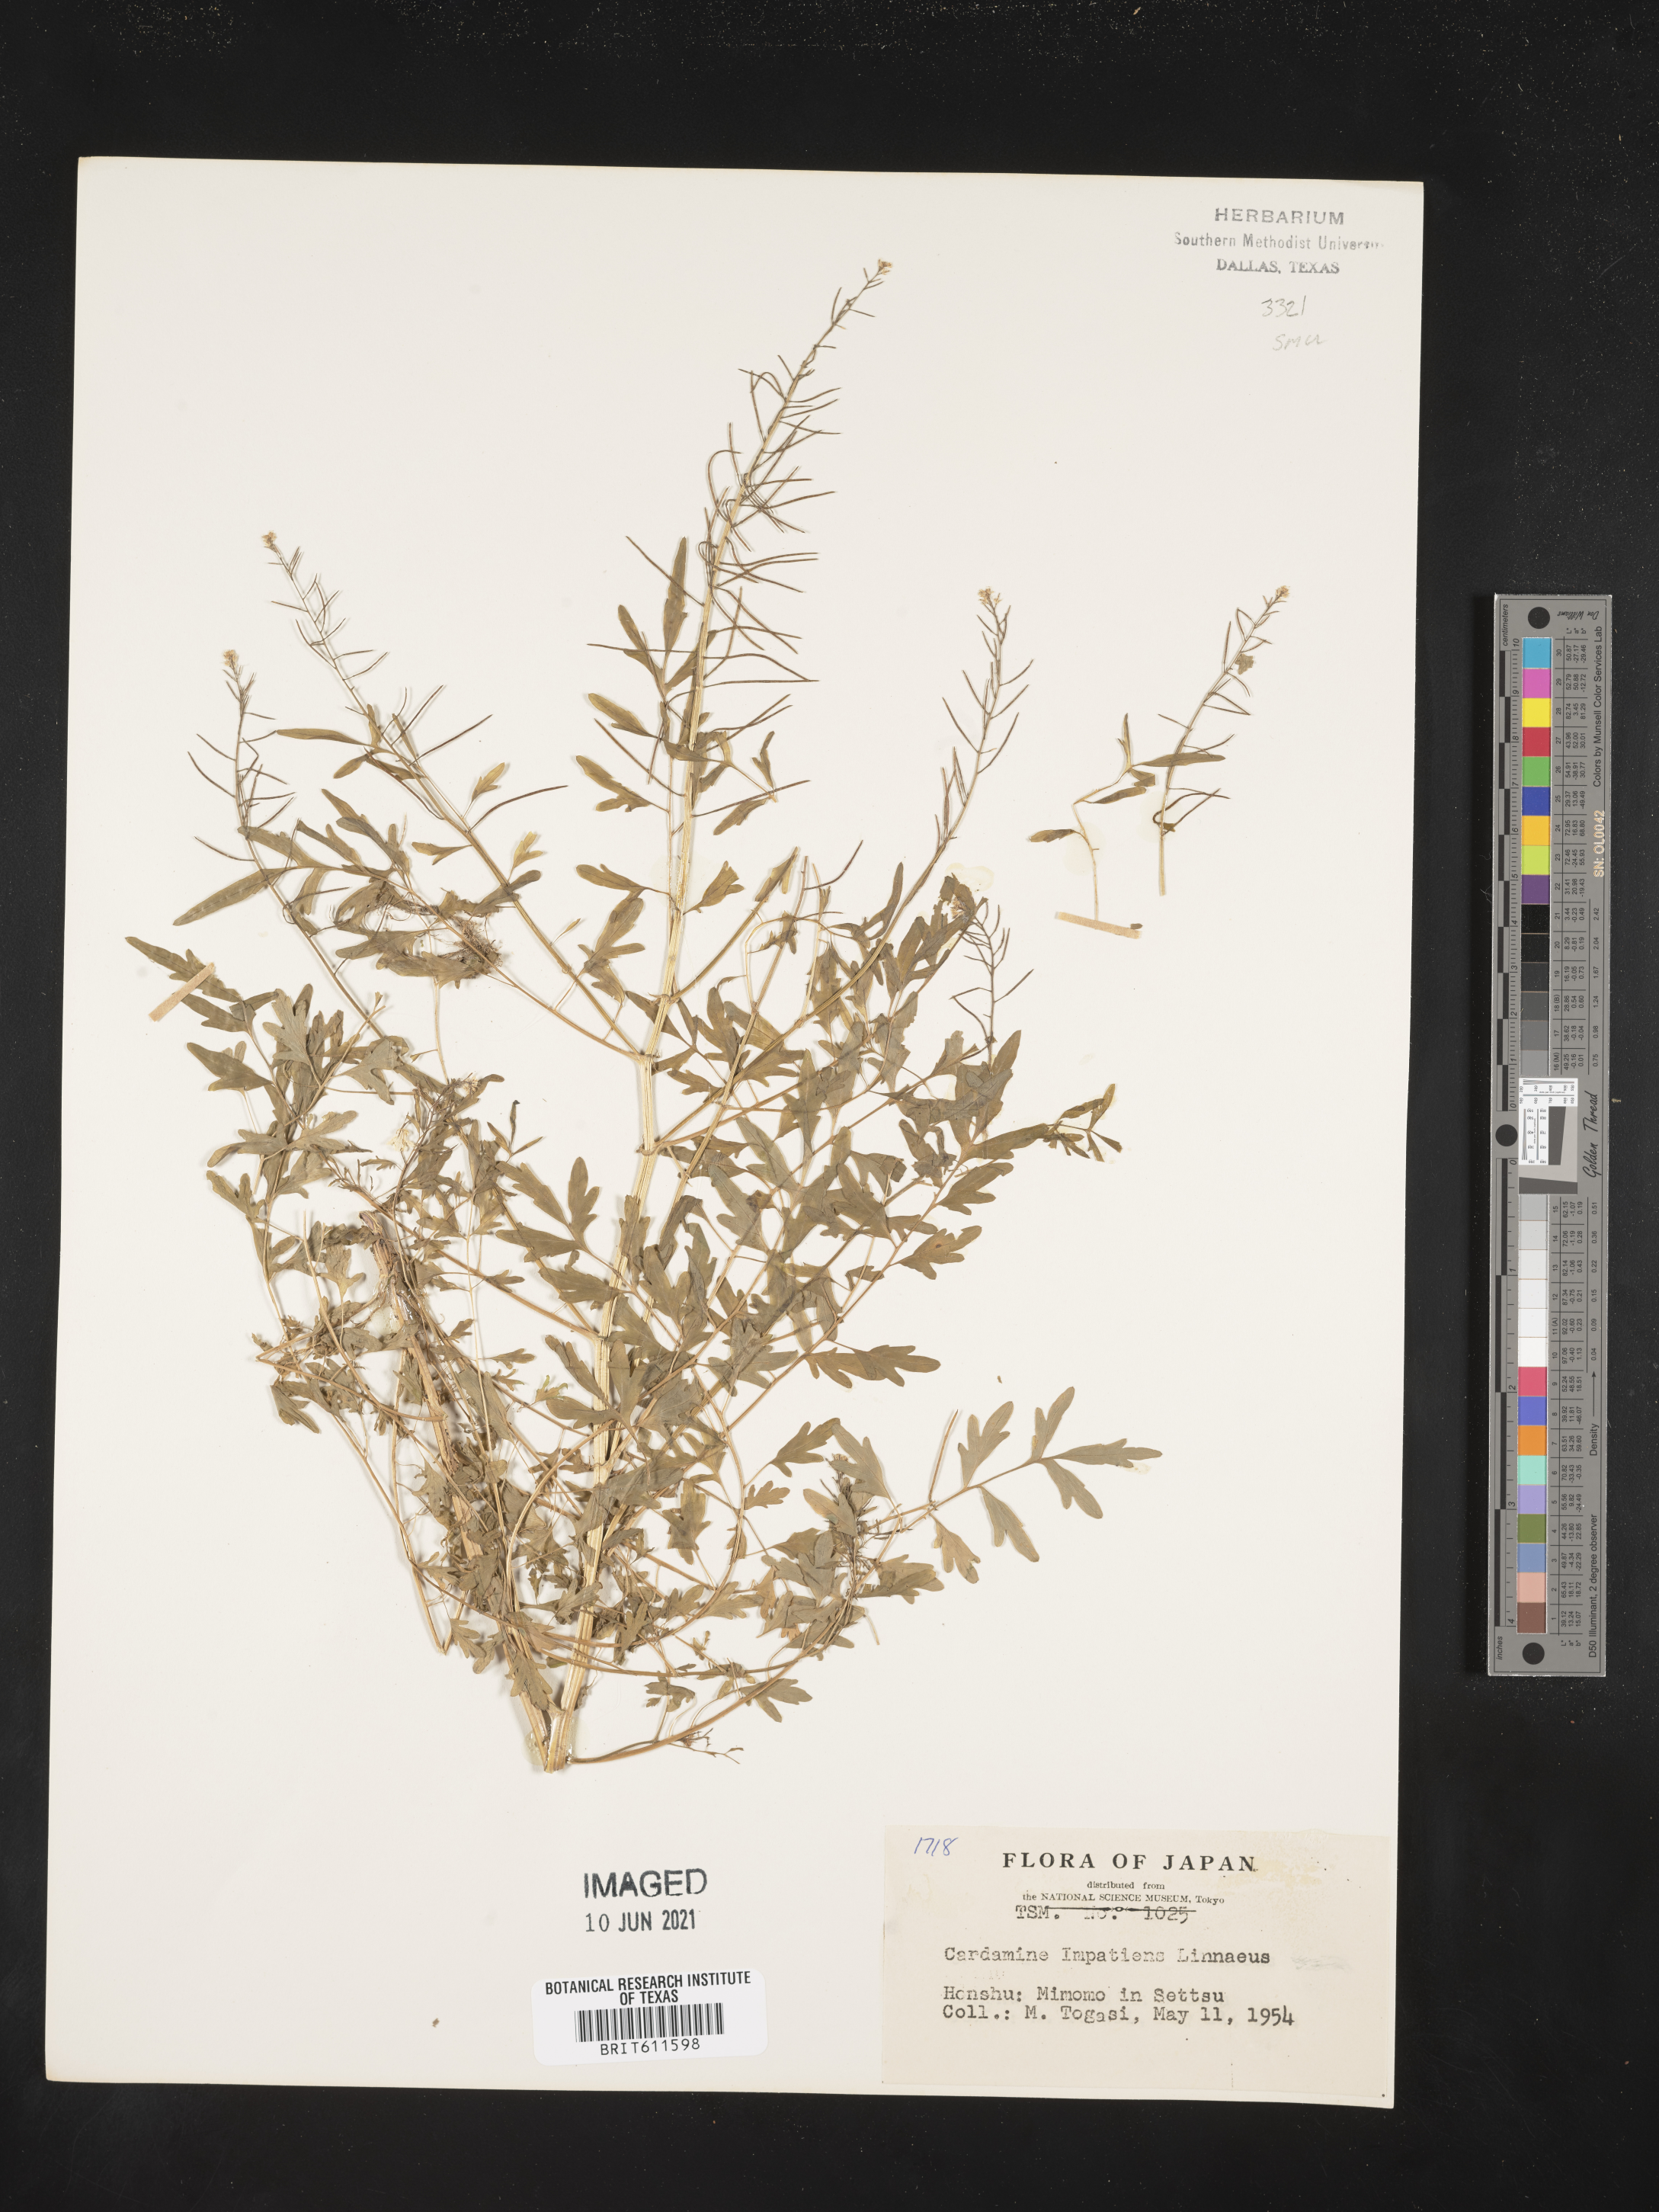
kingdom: Plantae
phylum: Tracheophyta
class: Magnoliopsida
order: Brassicales
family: Brassicaceae
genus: Cardamine
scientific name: Cardamine impatiens
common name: Narrow-leaved bitter-cress
